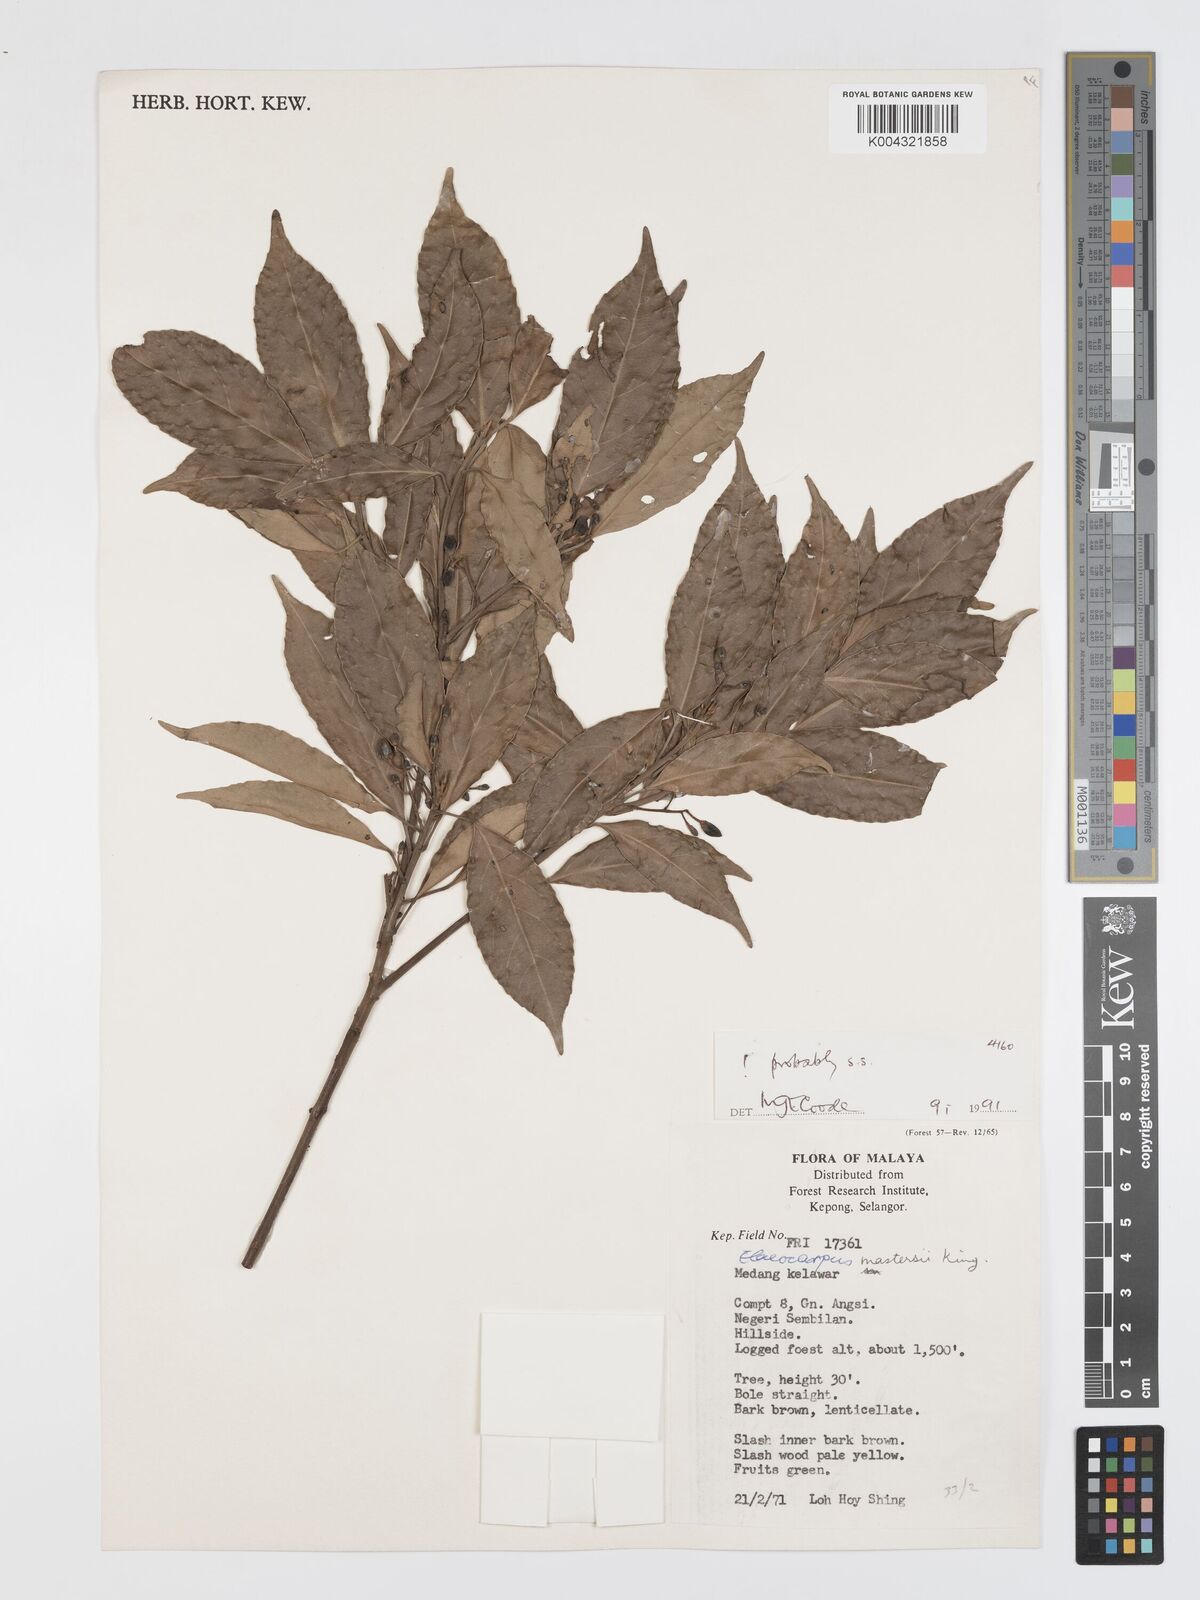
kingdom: Plantae
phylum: Tracheophyta
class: Magnoliopsida
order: Oxalidales
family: Elaeocarpaceae
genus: Elaeocarpus
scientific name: Elaeocarpus mastersii
